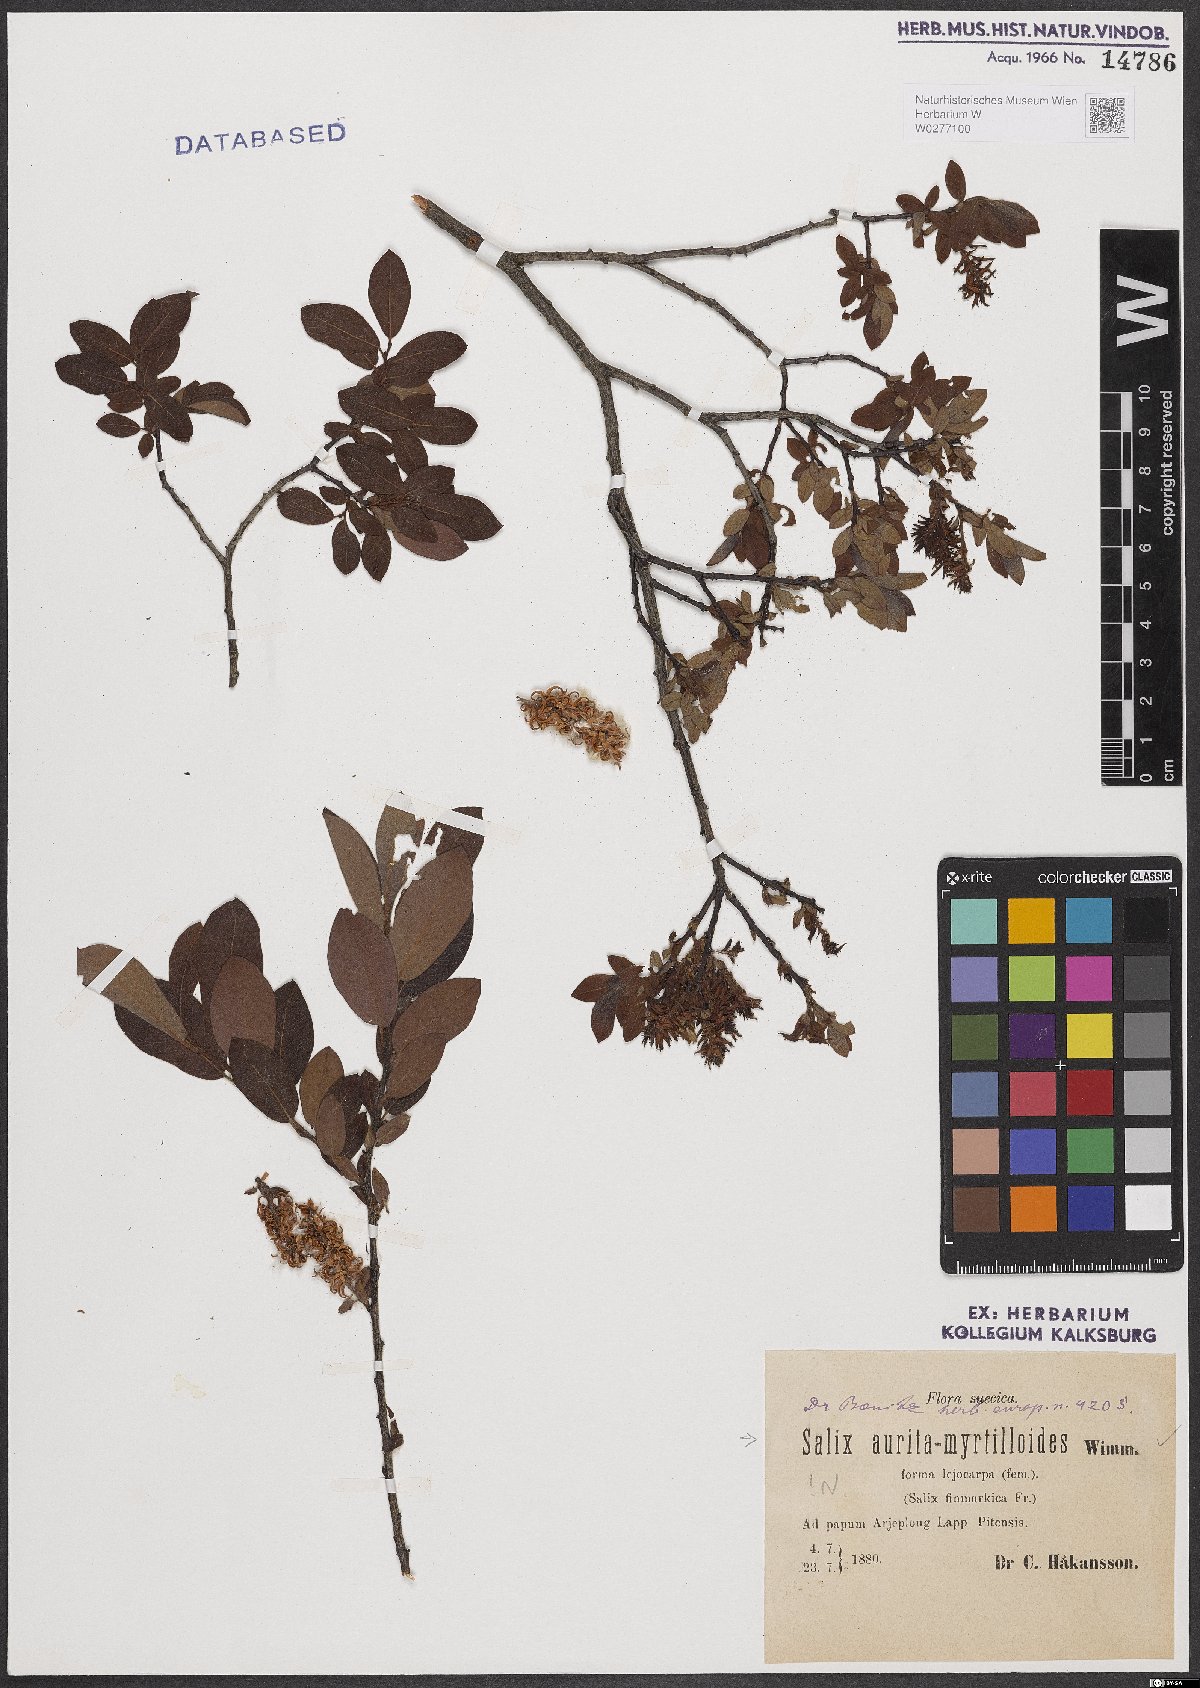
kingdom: Plantae
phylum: Tracheophyta
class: Magnoliopsida
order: Malpighiales
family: Salicaceae
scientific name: Salicaceae
